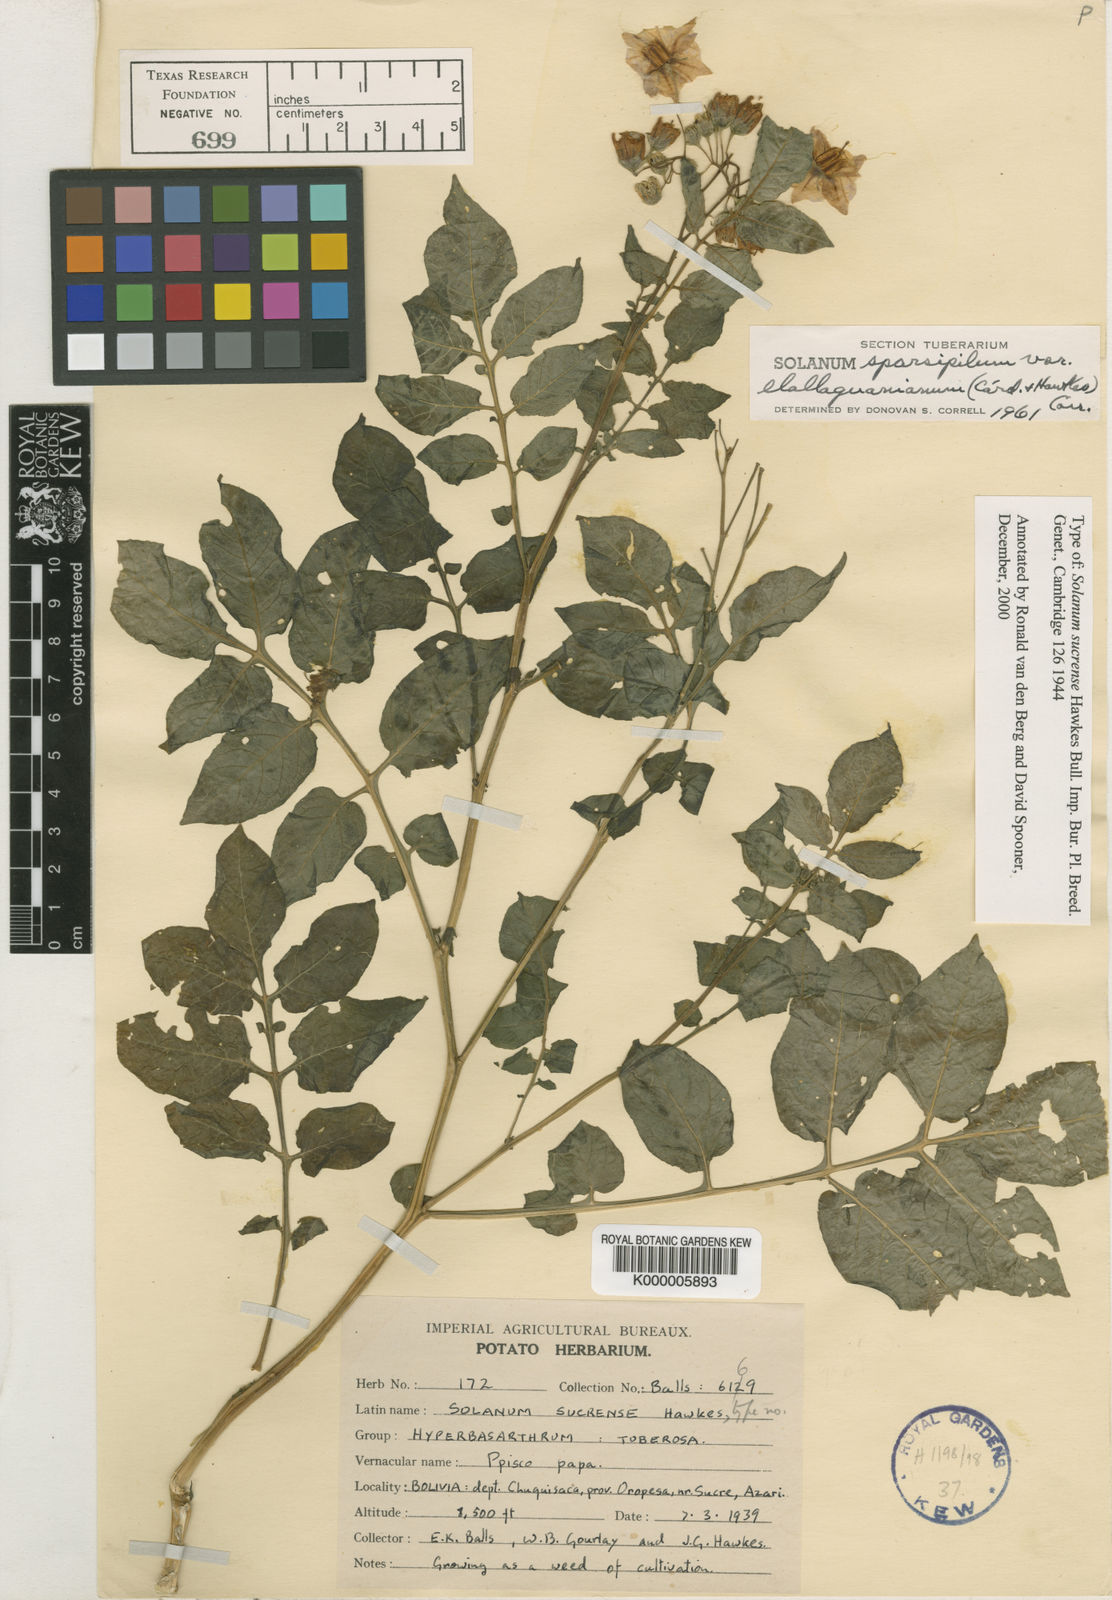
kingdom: Plantae
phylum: Tracheophyta
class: Magnoliopsida
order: Solanales
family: Solanaceae
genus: Solanum
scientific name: Solanum brevicaule
